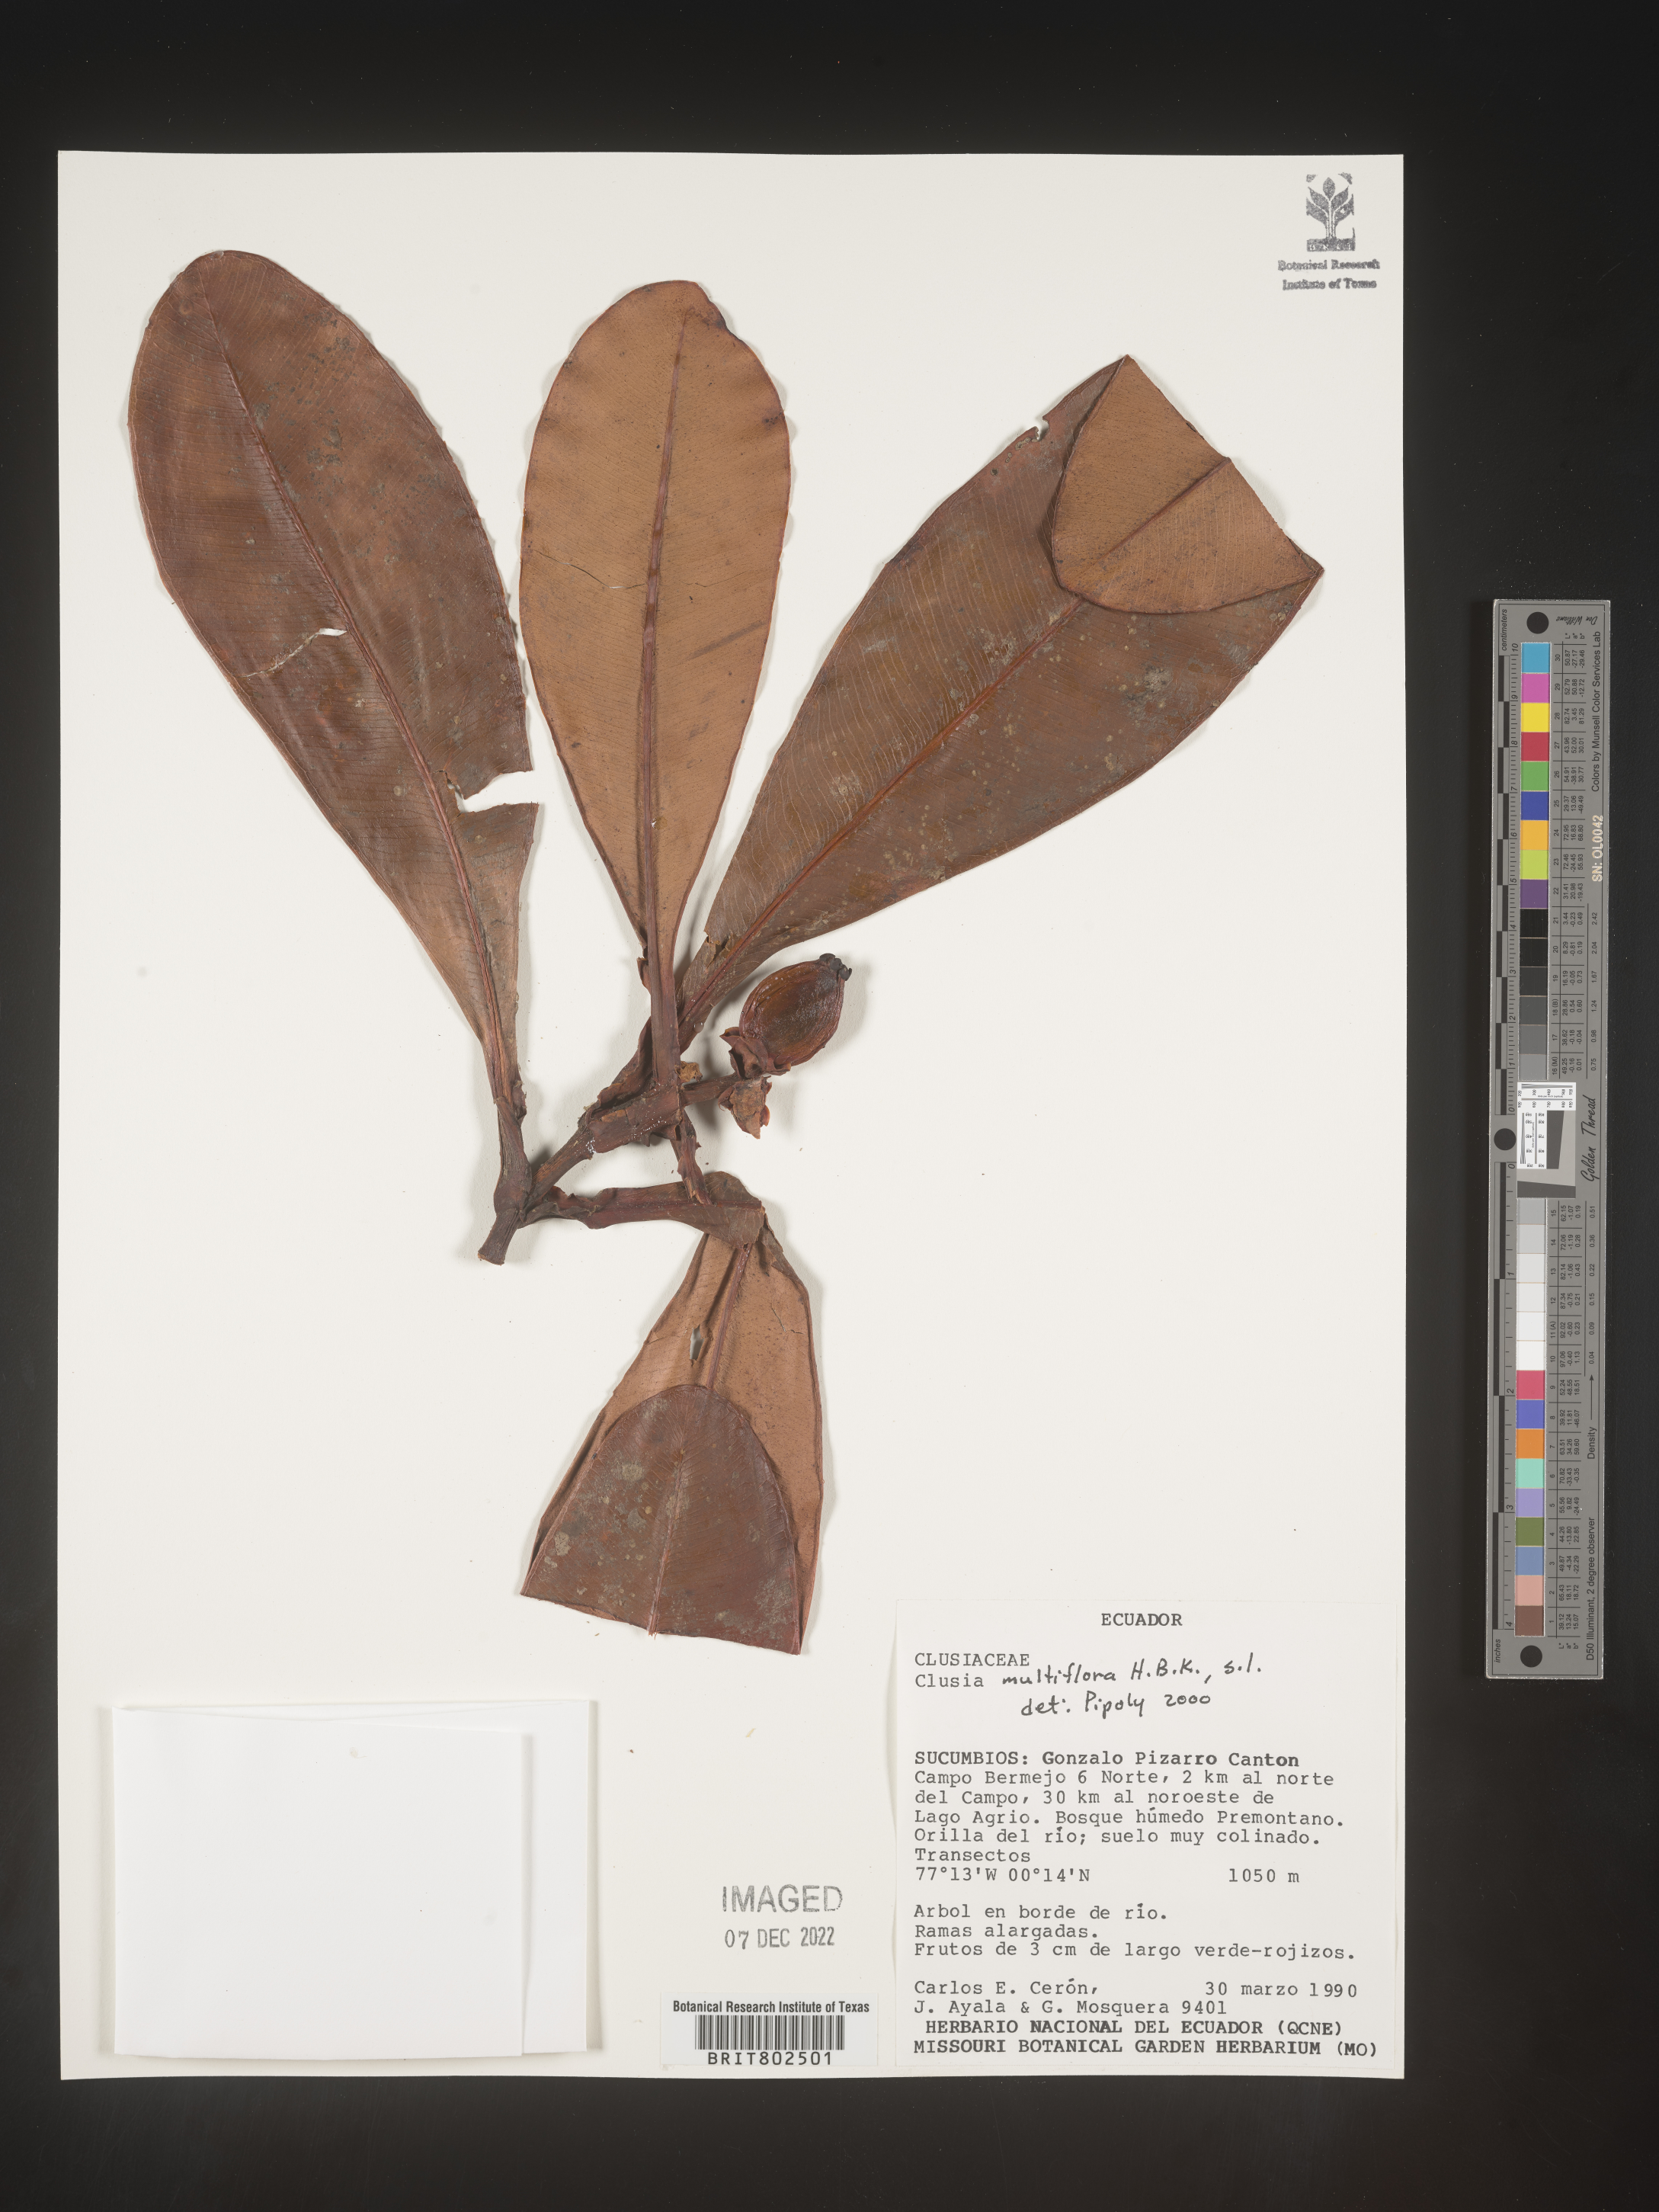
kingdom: Plantae
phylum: Tracheophyta
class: Magnoliopsida
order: Malpighiales
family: Clusiaceae
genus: Clusia
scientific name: Clusia multiflora
